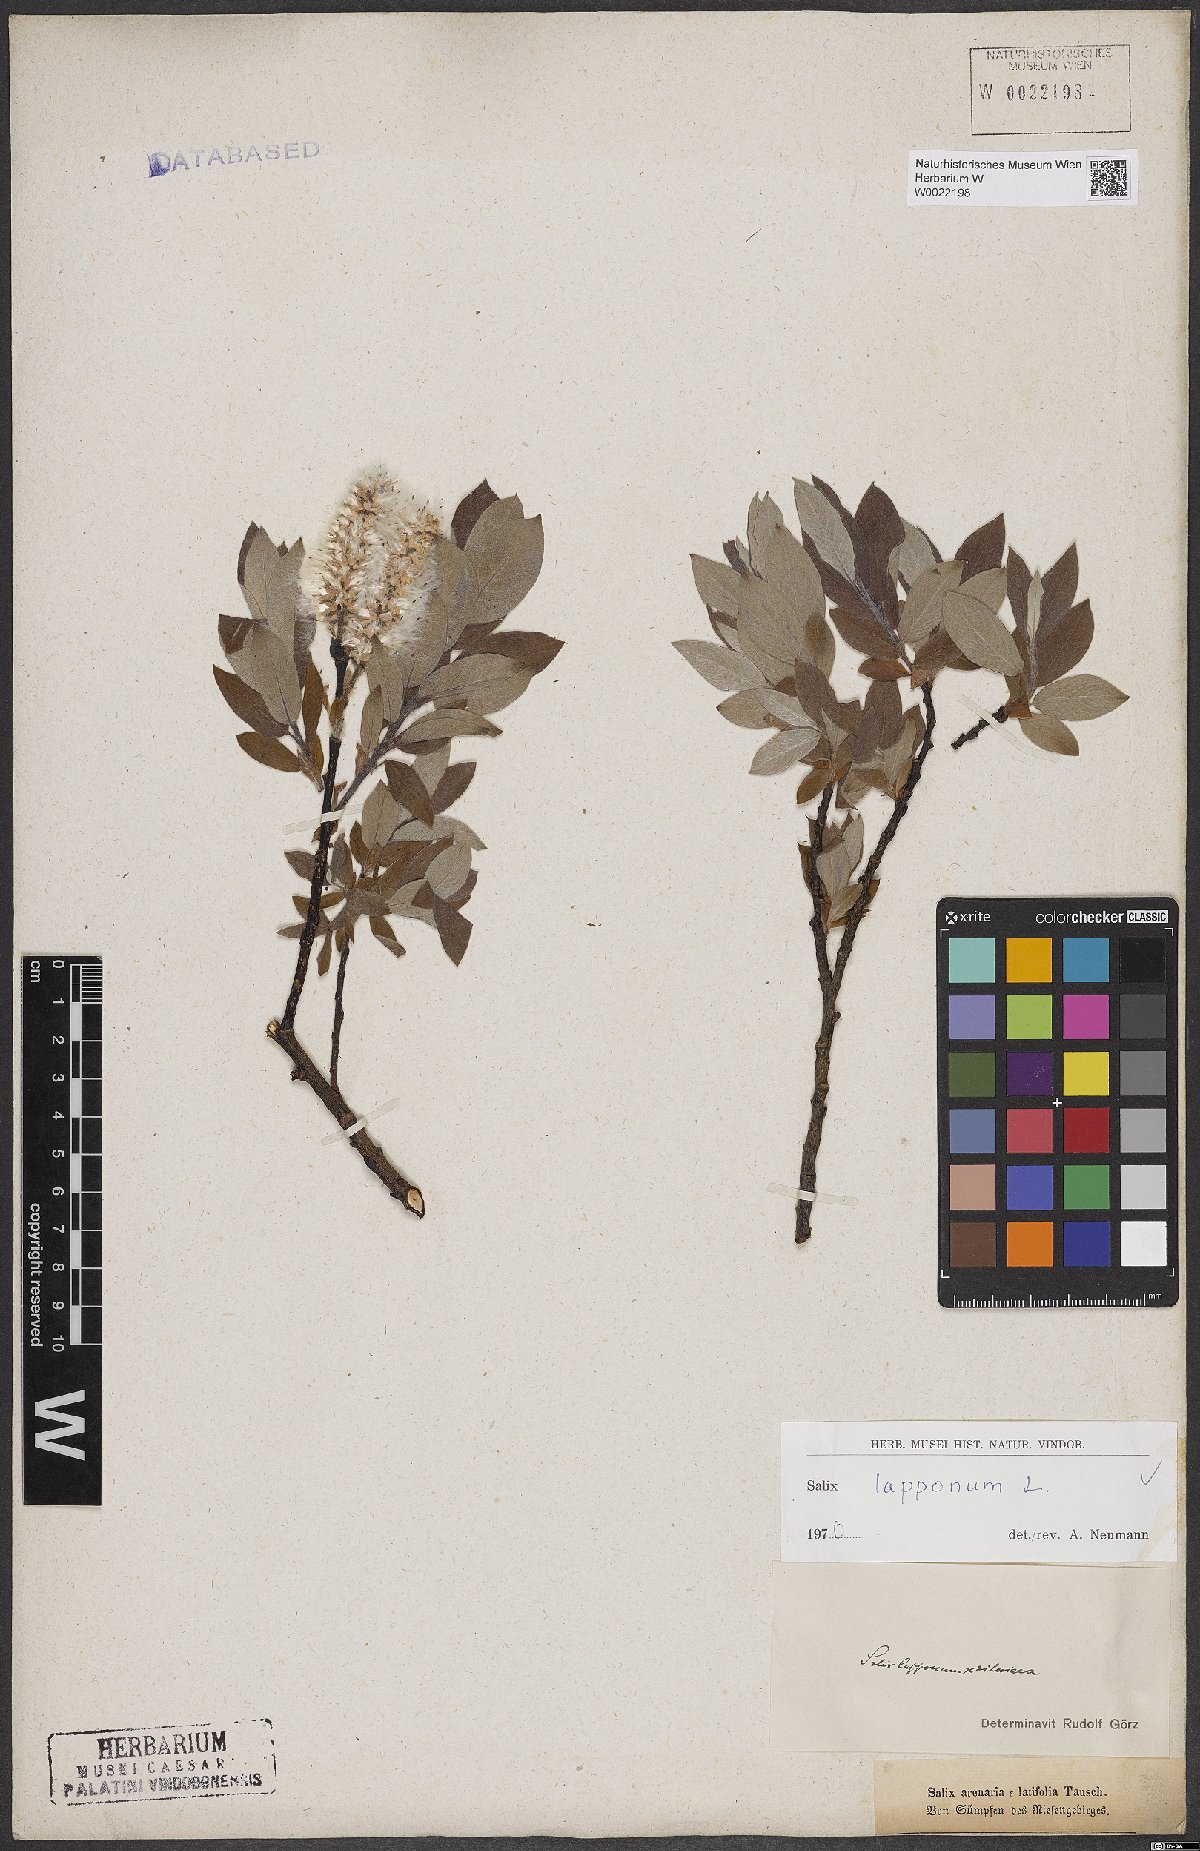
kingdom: Plantae
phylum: Tracheophyta
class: Magnoliopsida
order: Malpighiales
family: Salicaceae
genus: Salix
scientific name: Salix lapponum
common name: Downy willow
